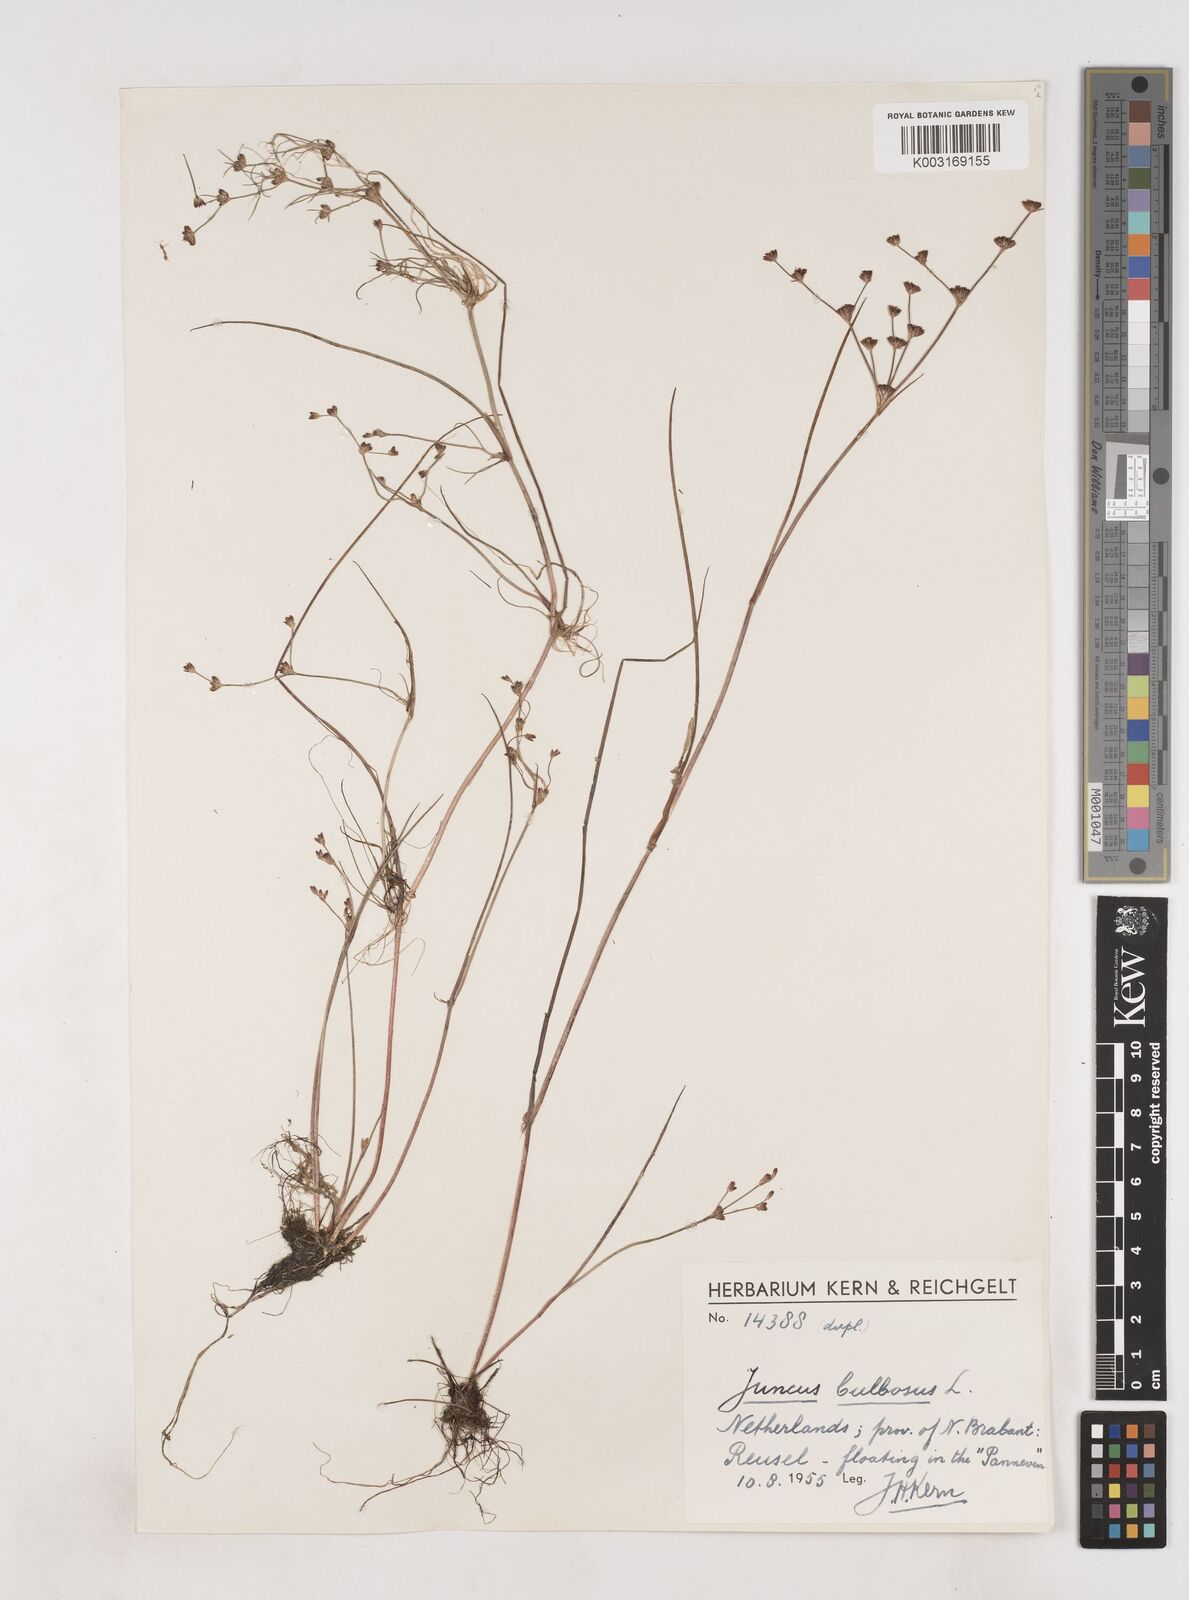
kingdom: Plantae
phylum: Tracheophyta
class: Liliopsida
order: Poales
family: Juncaceae
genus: Juncus
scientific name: Juncus bulbosus
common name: Bulbous rush
